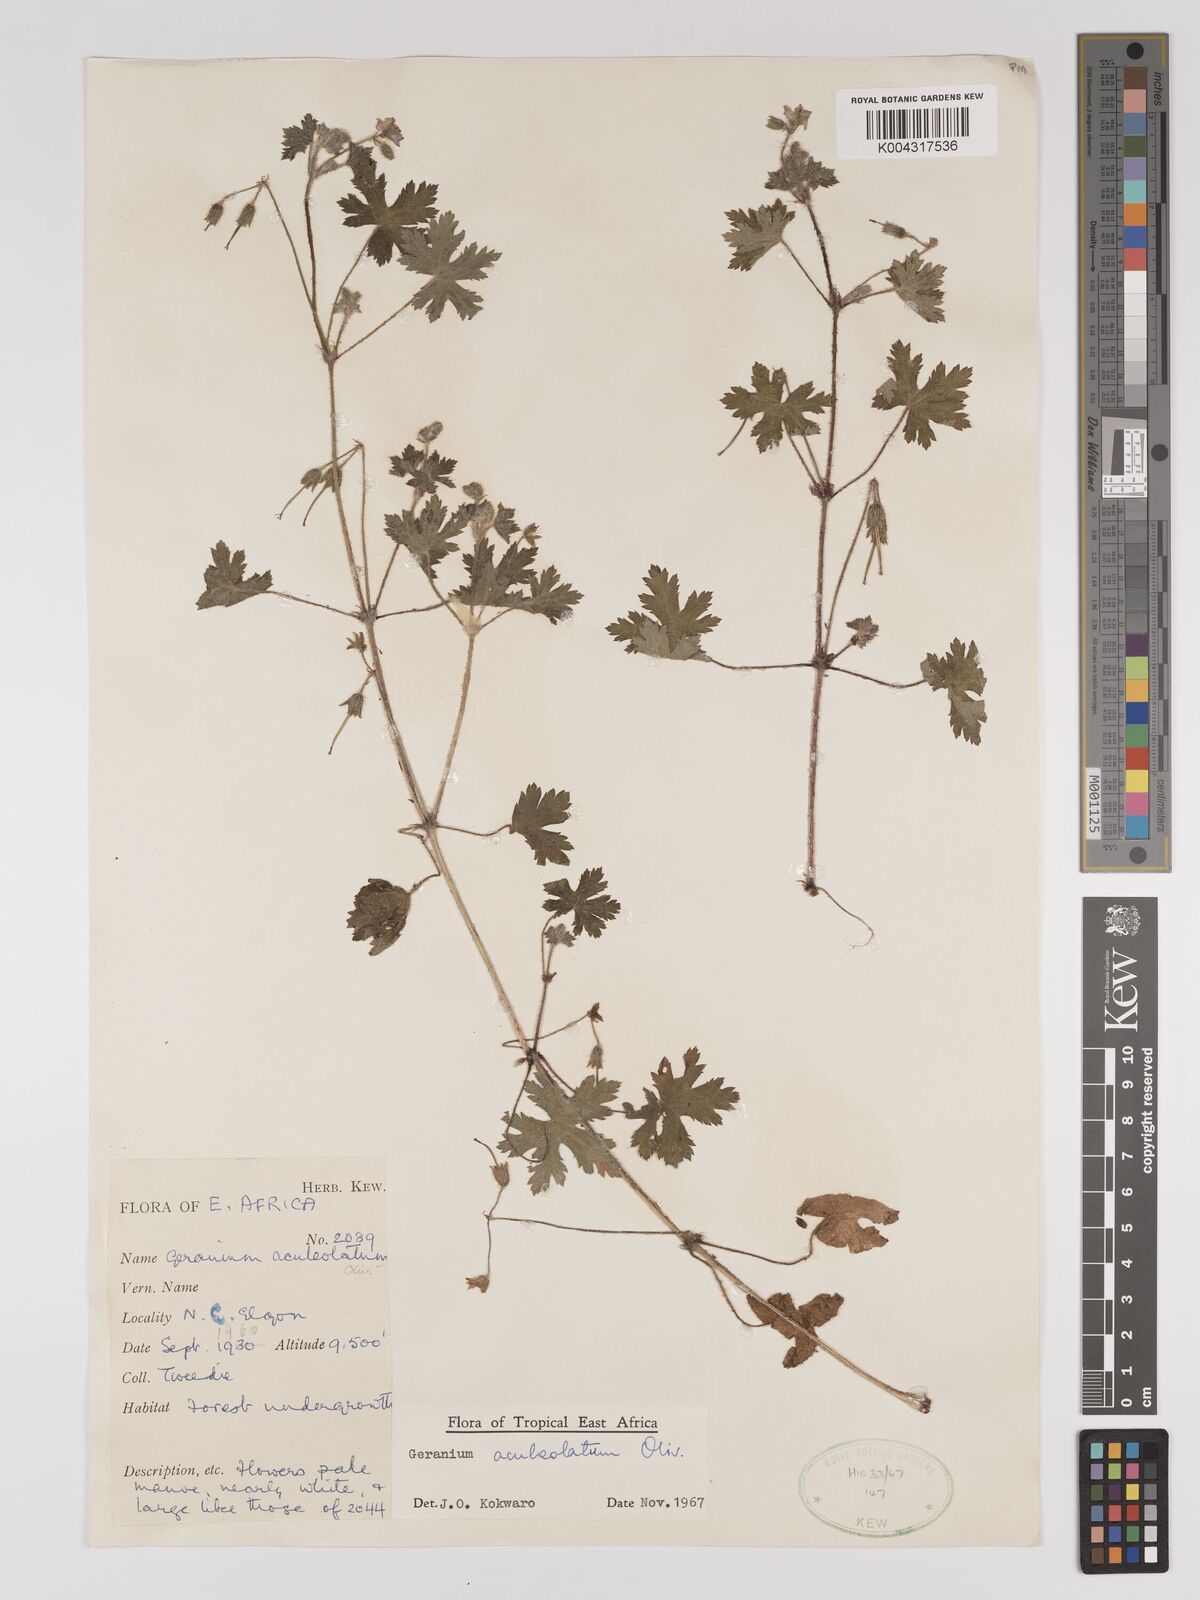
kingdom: Plantae
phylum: Tracheophyta
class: Magnoliopsida
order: Geraniales
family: Geraniaceae
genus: Geranium
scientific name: Geranium aculeolatum
